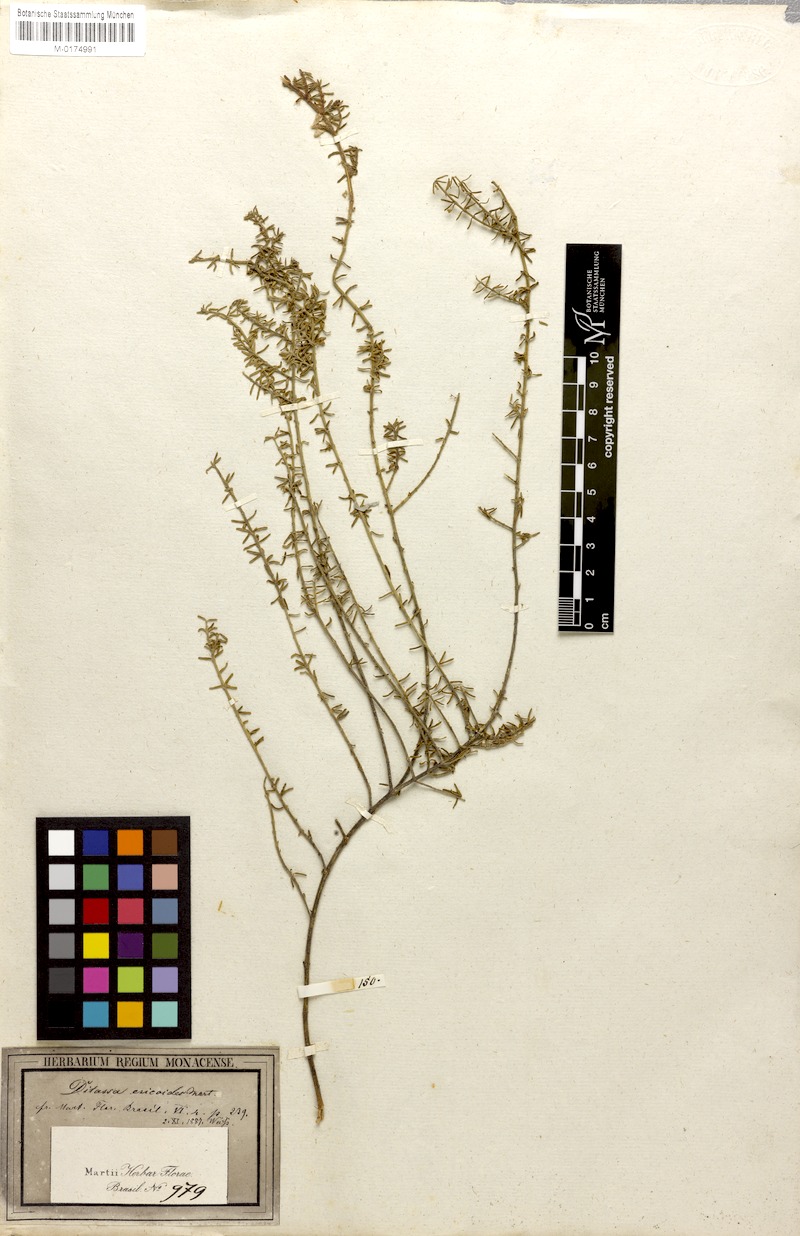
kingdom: Plantae
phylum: Tracheophyta
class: Magnoliopsida
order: Gentianales
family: Apocynaceae
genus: Minaria
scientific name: Minaria acerosa
